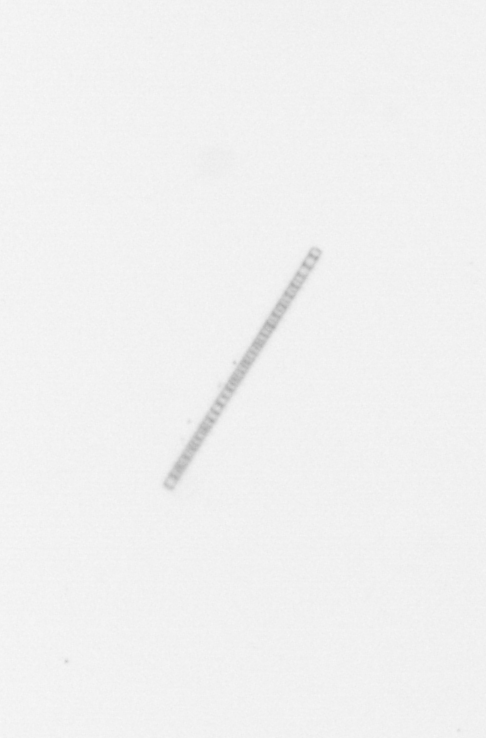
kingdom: Chromista
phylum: Ochrophyta
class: Bacillariophyceae
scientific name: Bacillariophyceae
